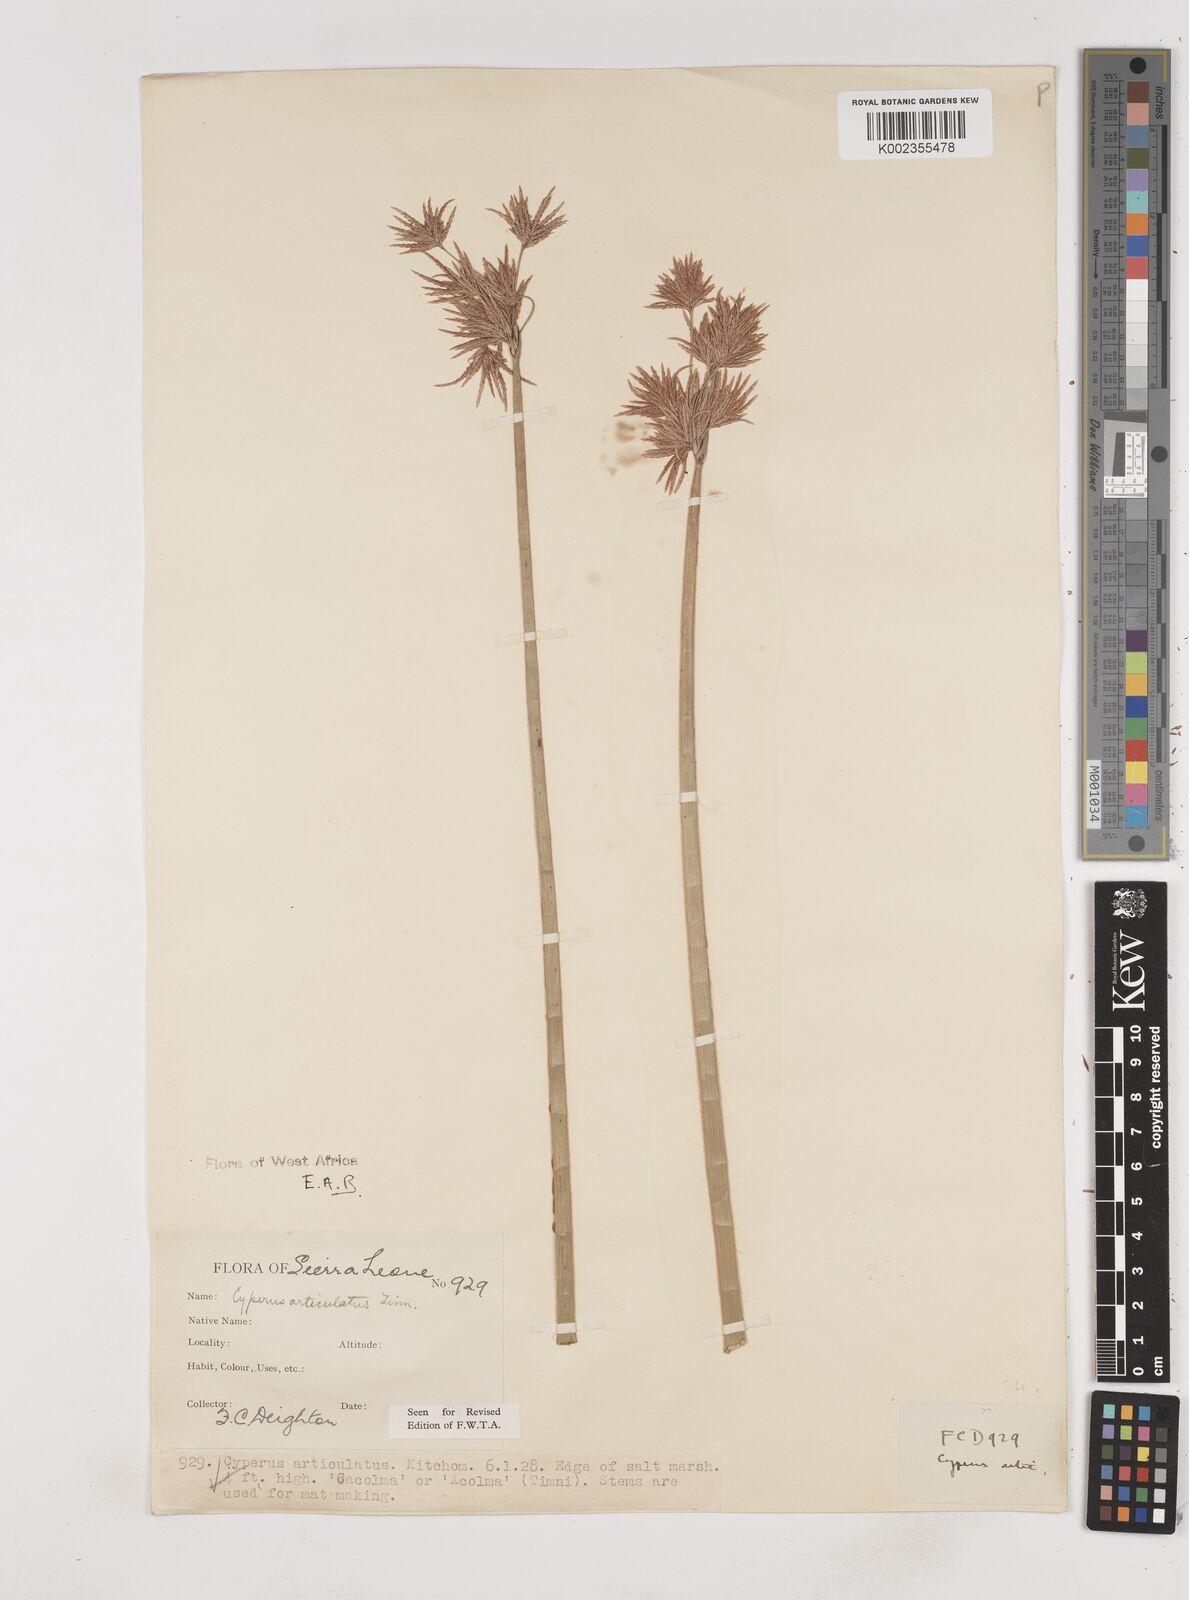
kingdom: Plantae
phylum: Tracheophyta
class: Liliopsida
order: Poales
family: Cyperaceae
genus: Cyperus
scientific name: Cyperus articulatus
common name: Jointed flatsedge
